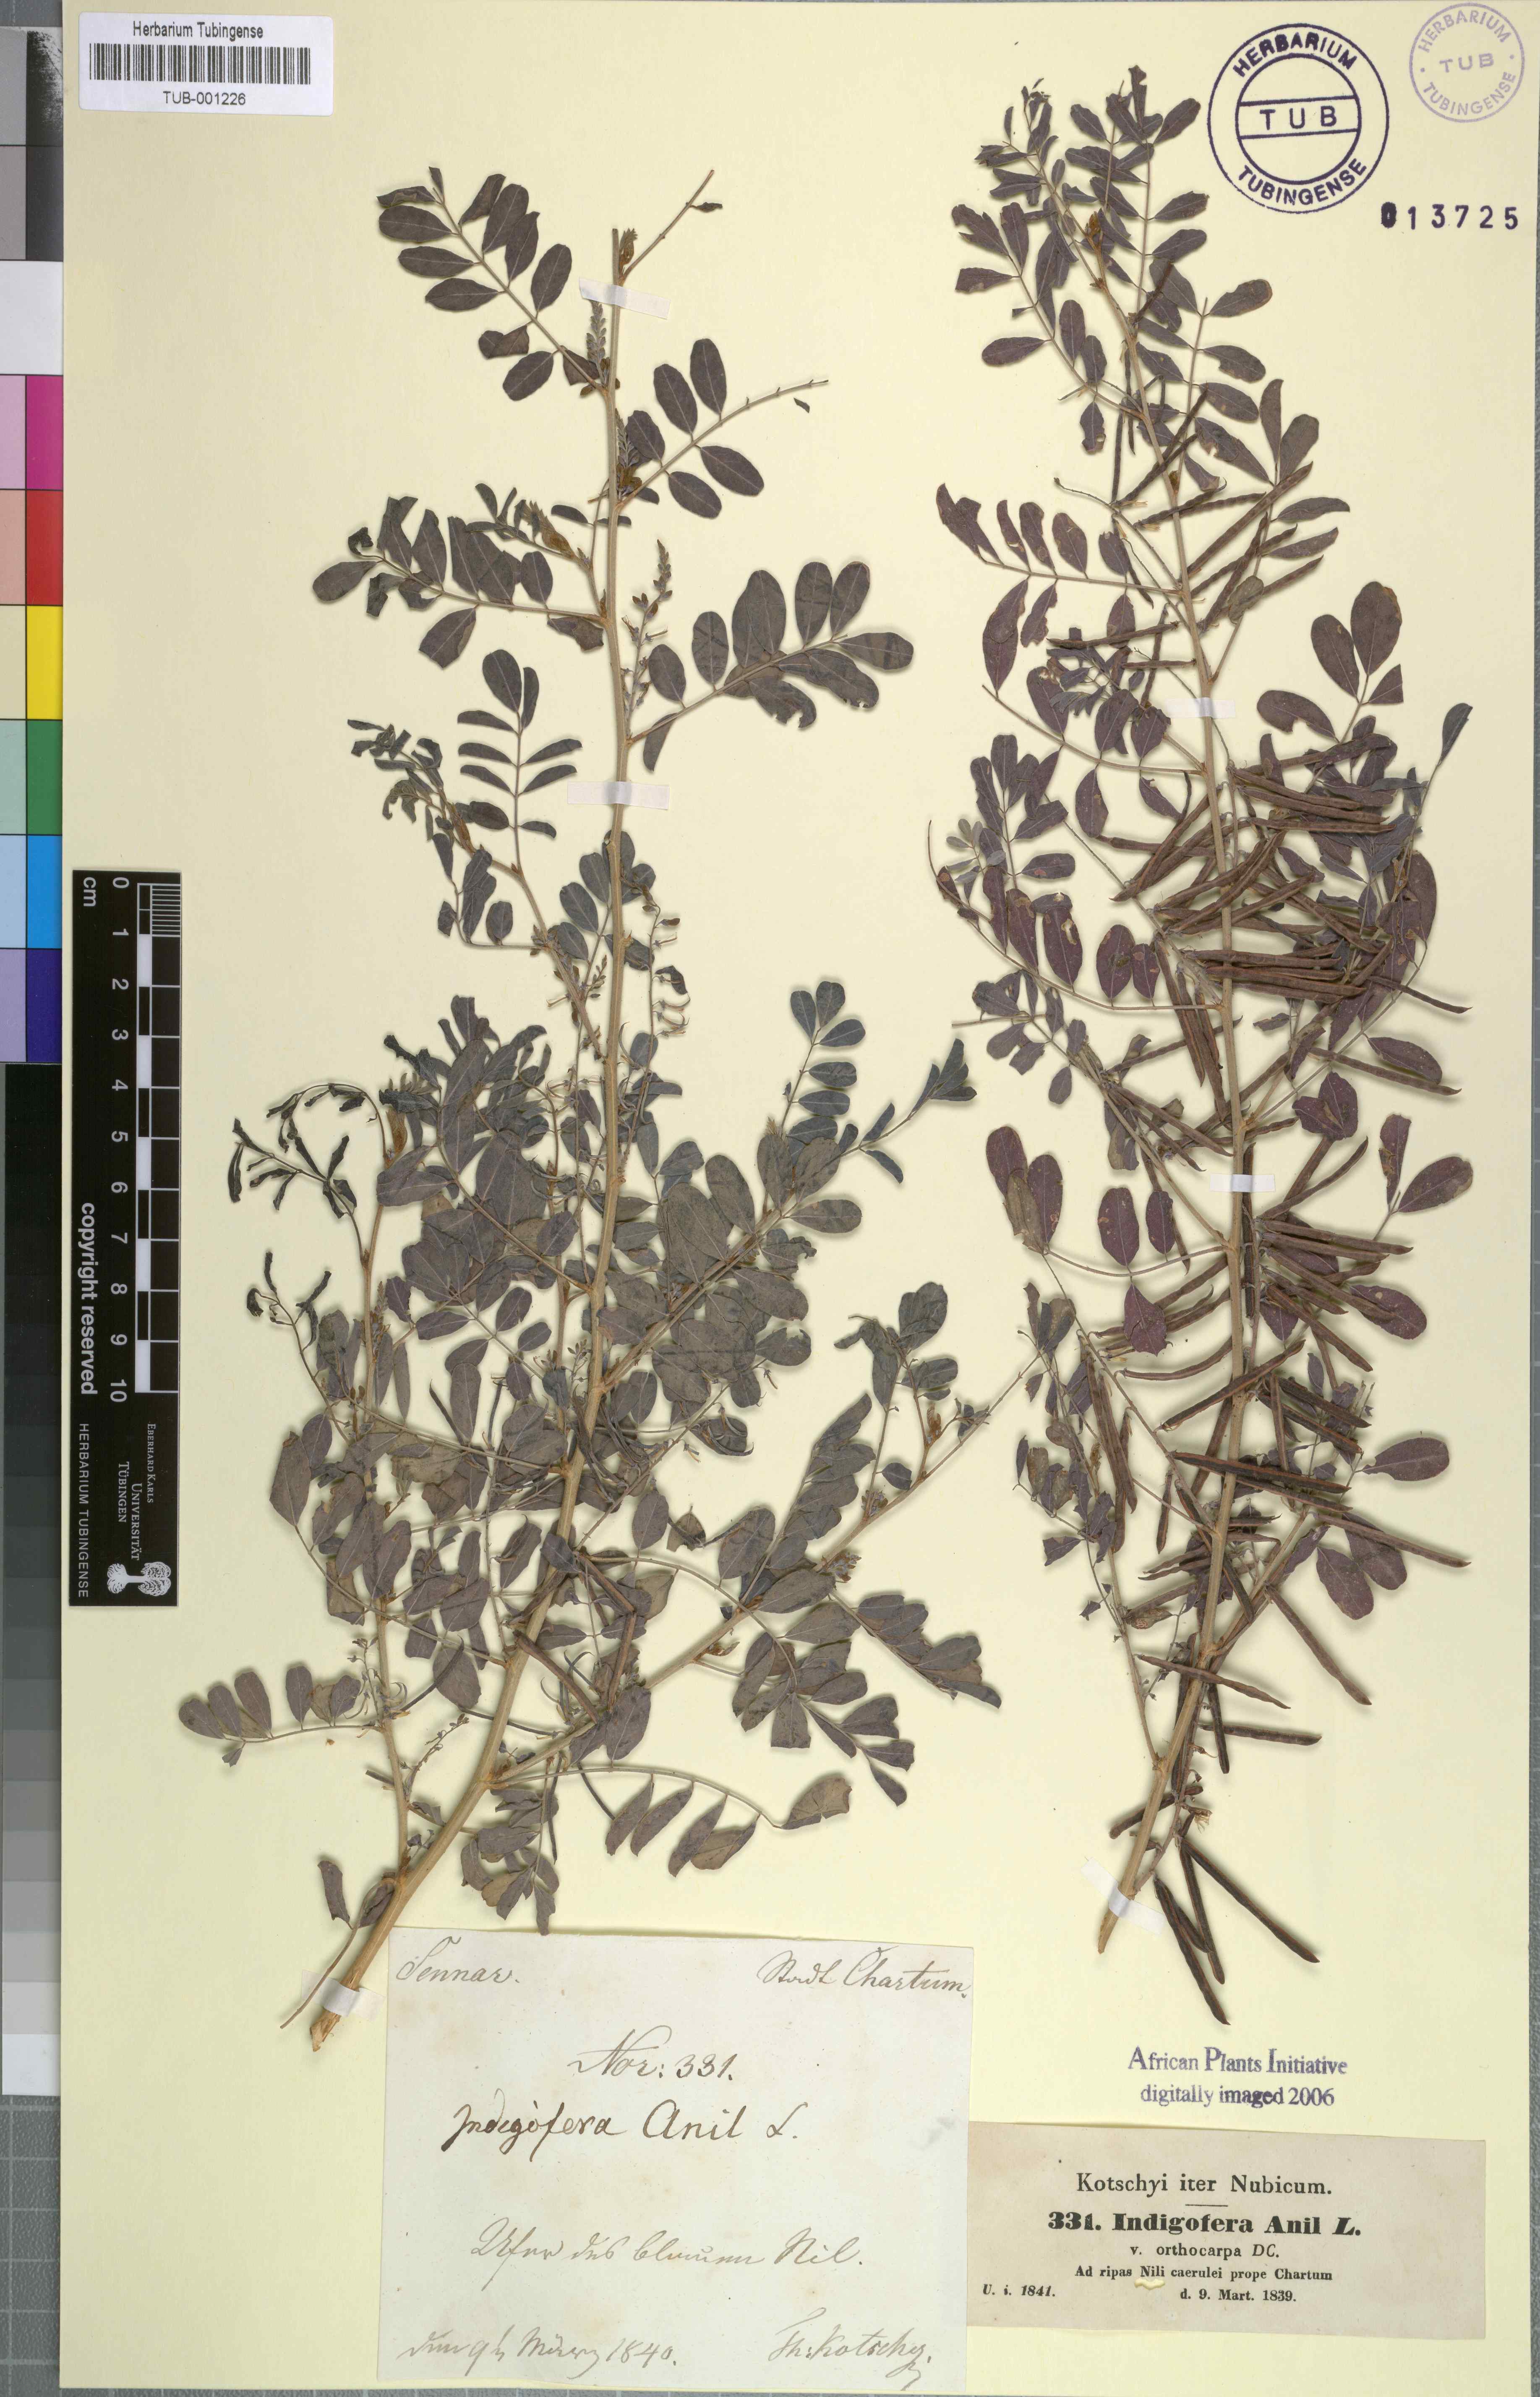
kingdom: Plantae
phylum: Tracheophyta
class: Magnoliopsida
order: Fabales
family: Fabaceae
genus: Indigofera
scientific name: Indigofera suffruticosa
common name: Anil de pasto
